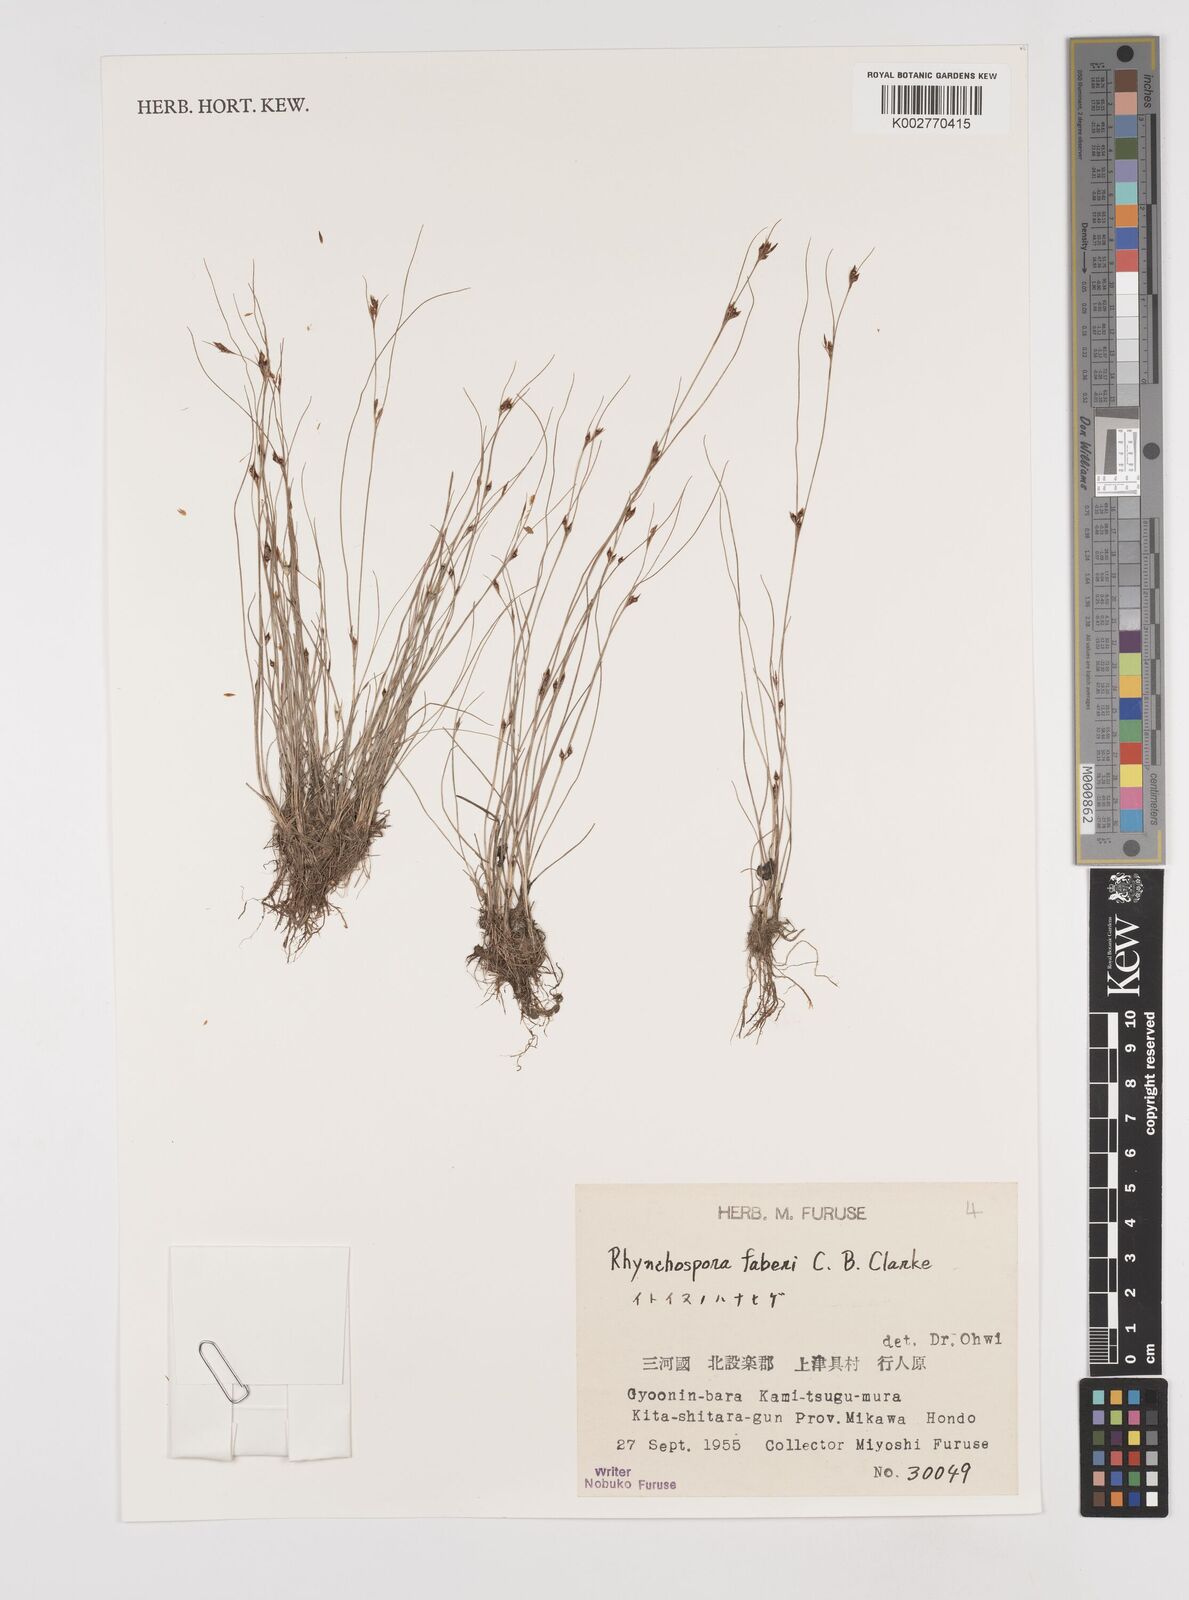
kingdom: Plantae
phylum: Tracheophyta
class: Liliopsida
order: Poales
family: Cyperaceae
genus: Rhynchospora
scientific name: Rhynchospora faberi
